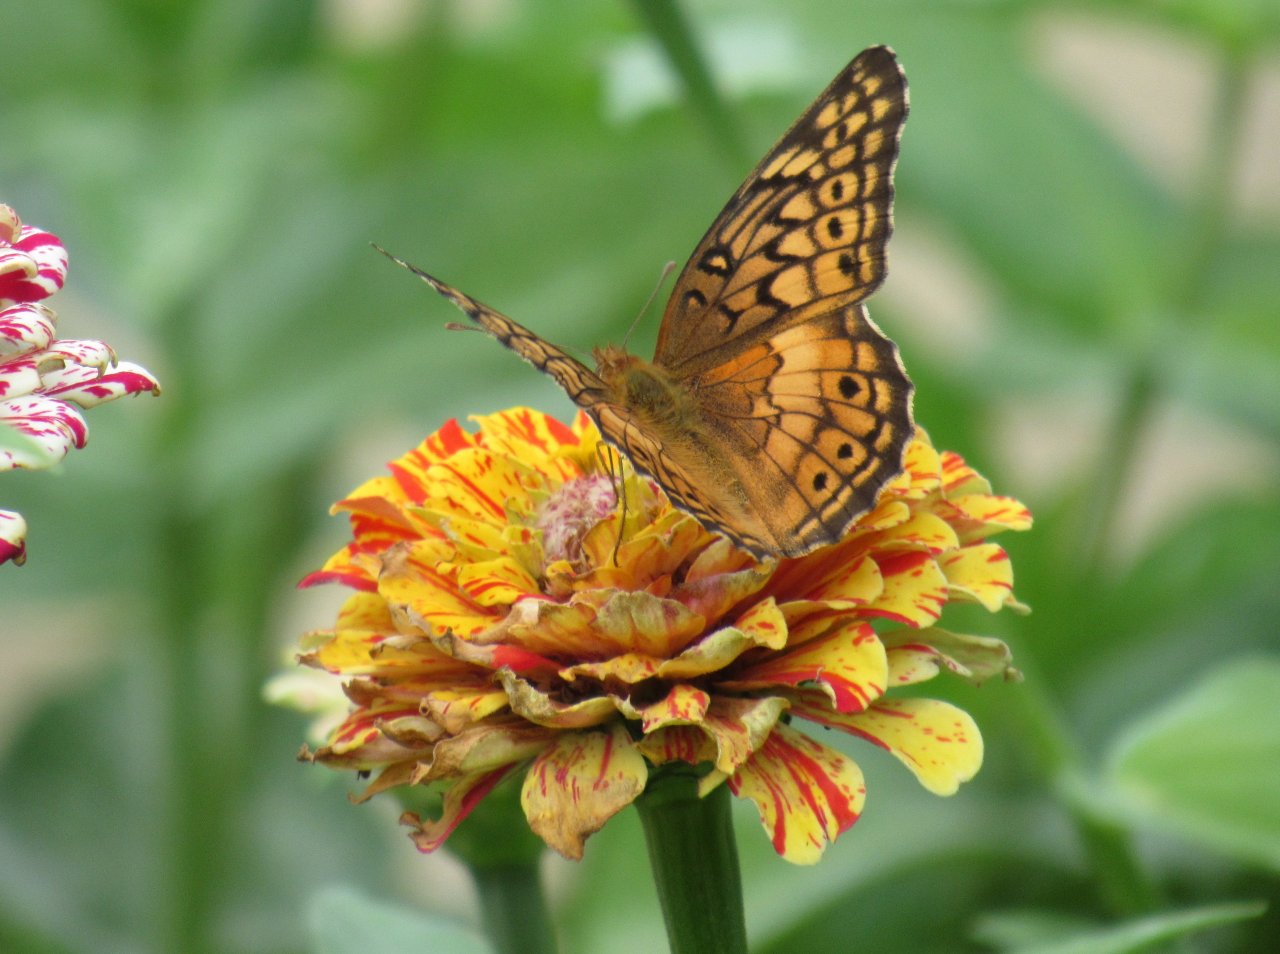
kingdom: Animalia
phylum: Arthropoda
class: Insecta
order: Lepidoptera
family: Nymphalidae
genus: Euptoieta
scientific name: Euptoieta claudia
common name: Variegated Fritillary
